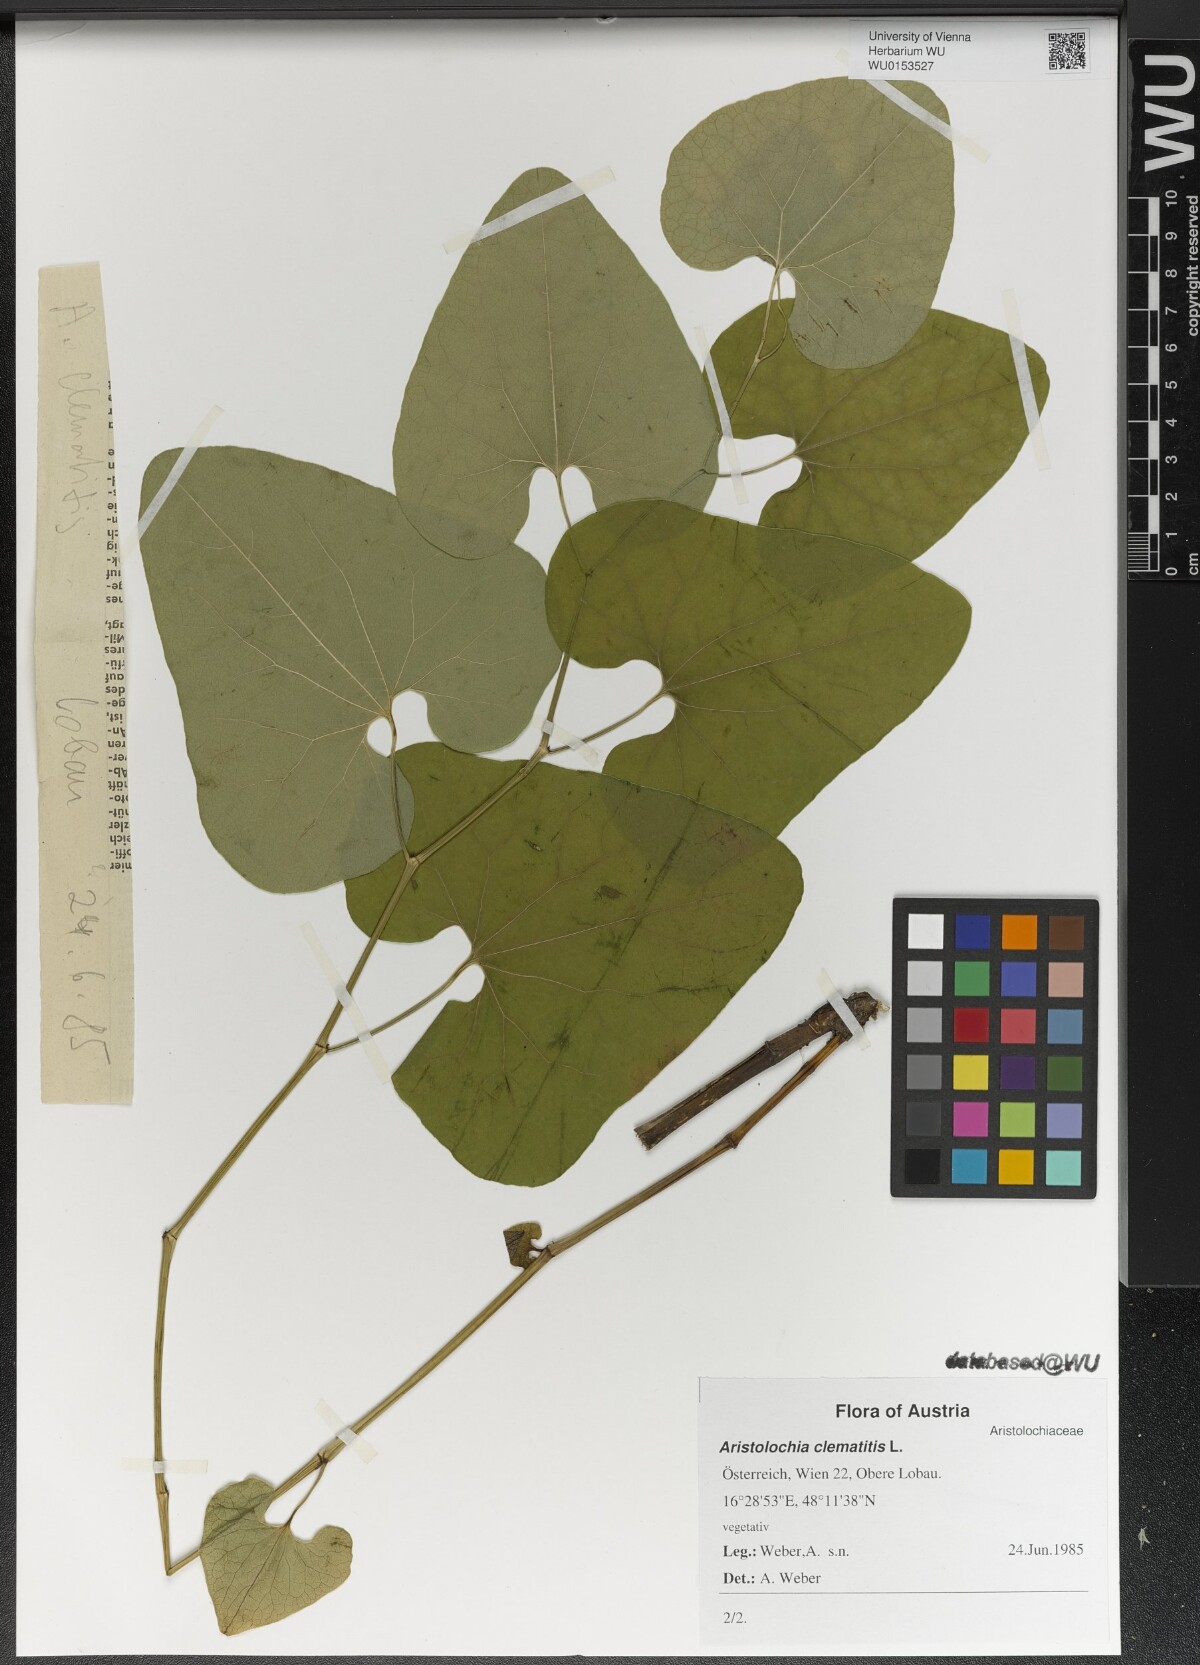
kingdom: Plantae
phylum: Tracheophyta
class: Magnoliopsida
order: Piperales
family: Aristolochiaceae
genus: Aristolochia
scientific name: Aristolochia clematitis
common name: Birthwort
